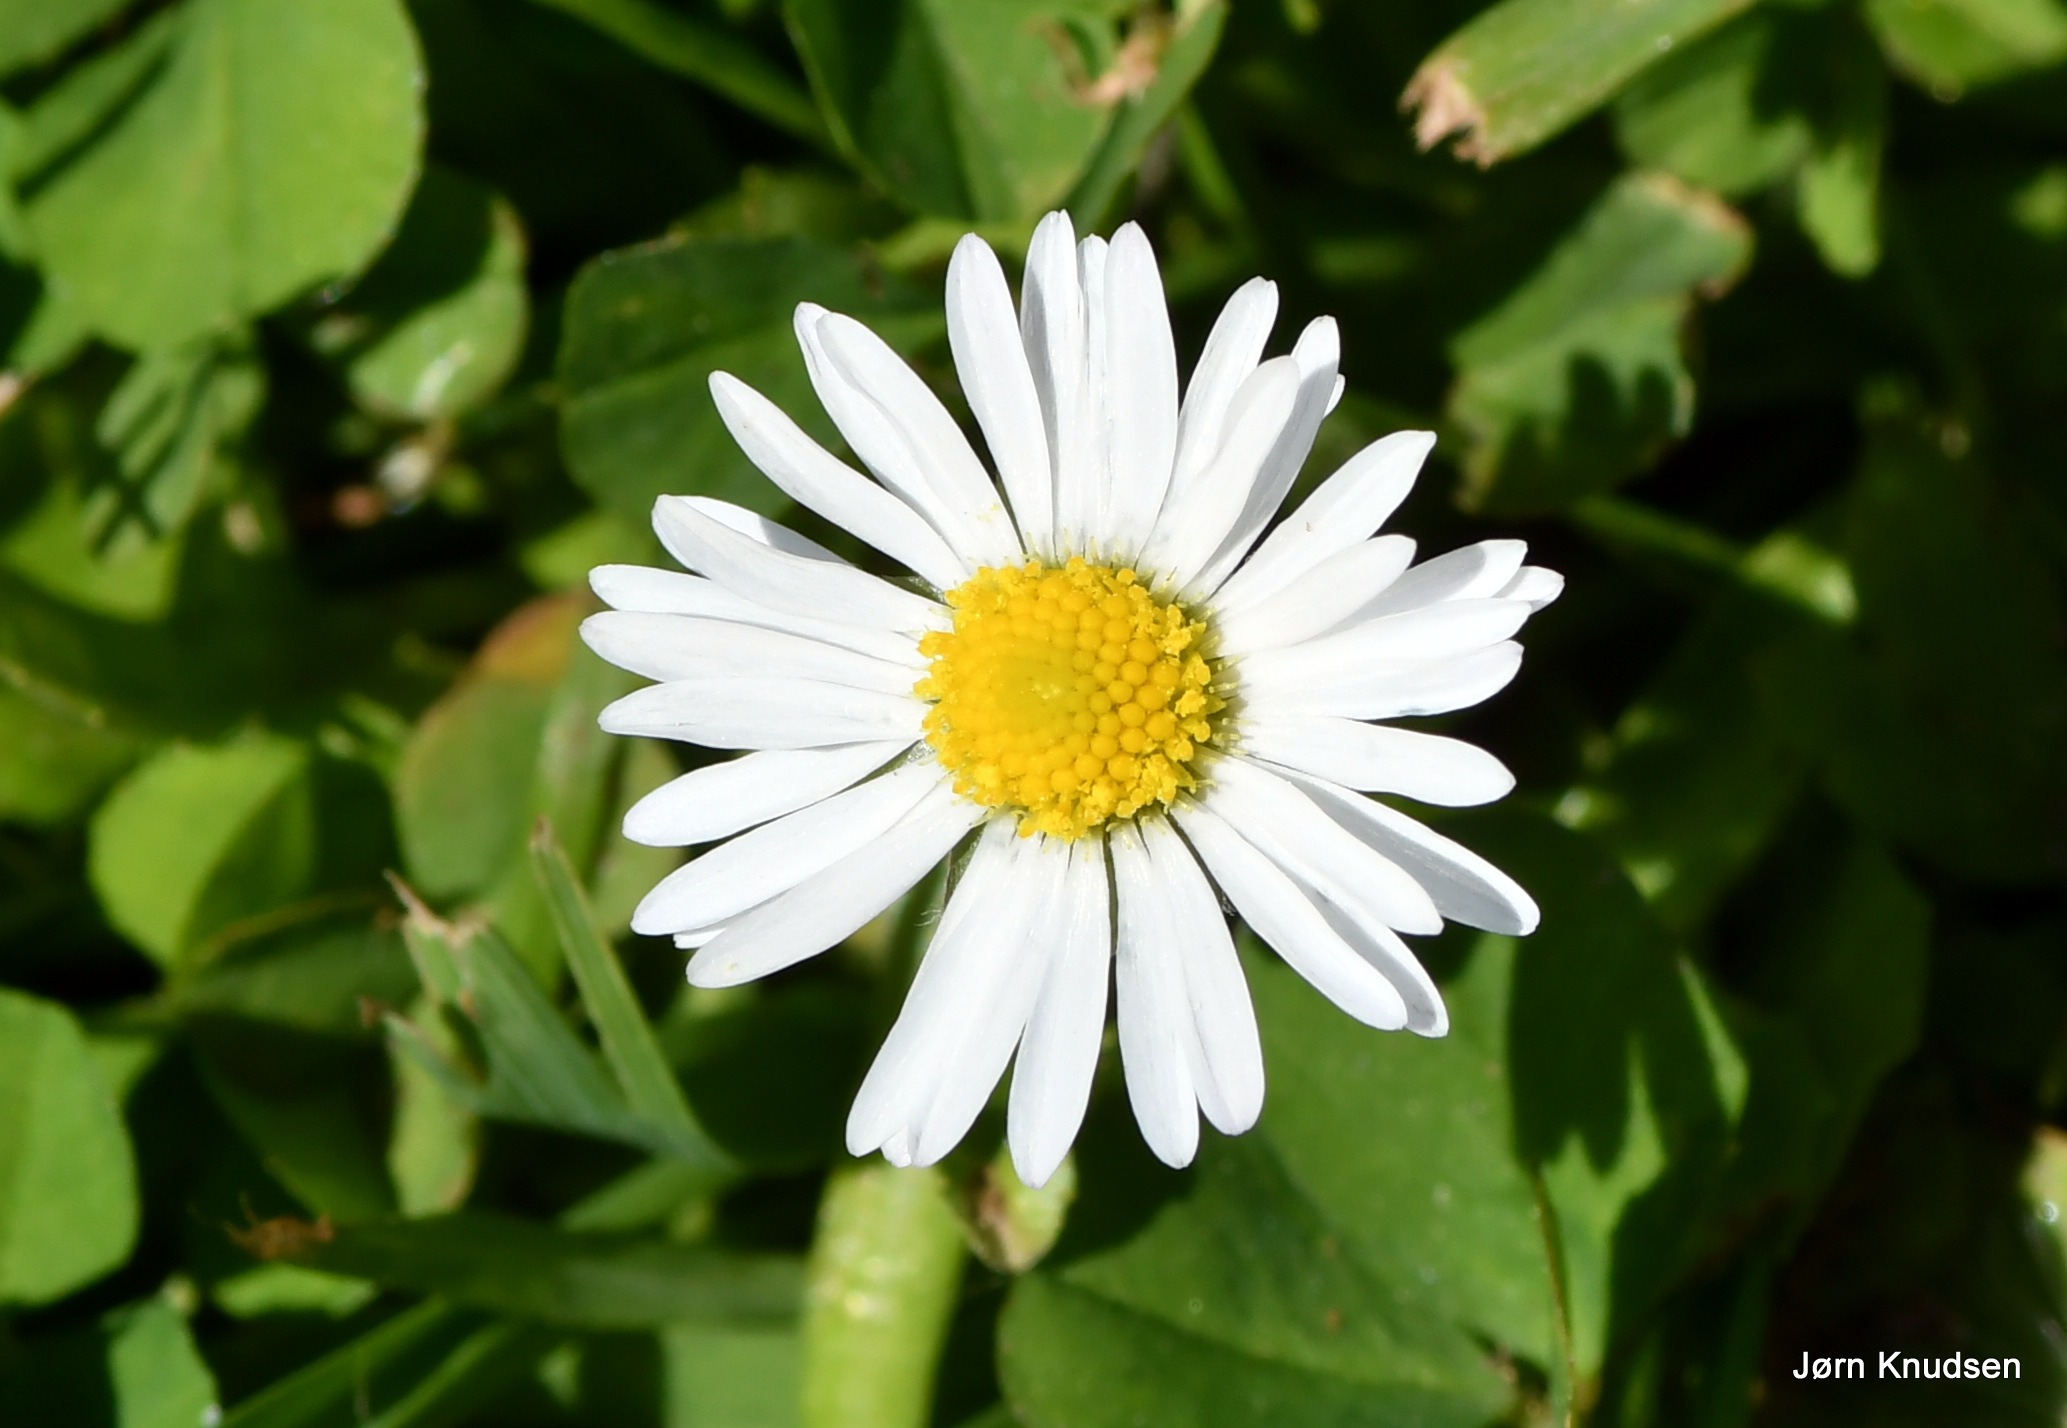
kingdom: Plantae
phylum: Tracheophyta
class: Magnoliopsida
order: Asterales
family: Asteraceae
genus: Bellis
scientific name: Bellis perennis
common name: Tusindfryd
